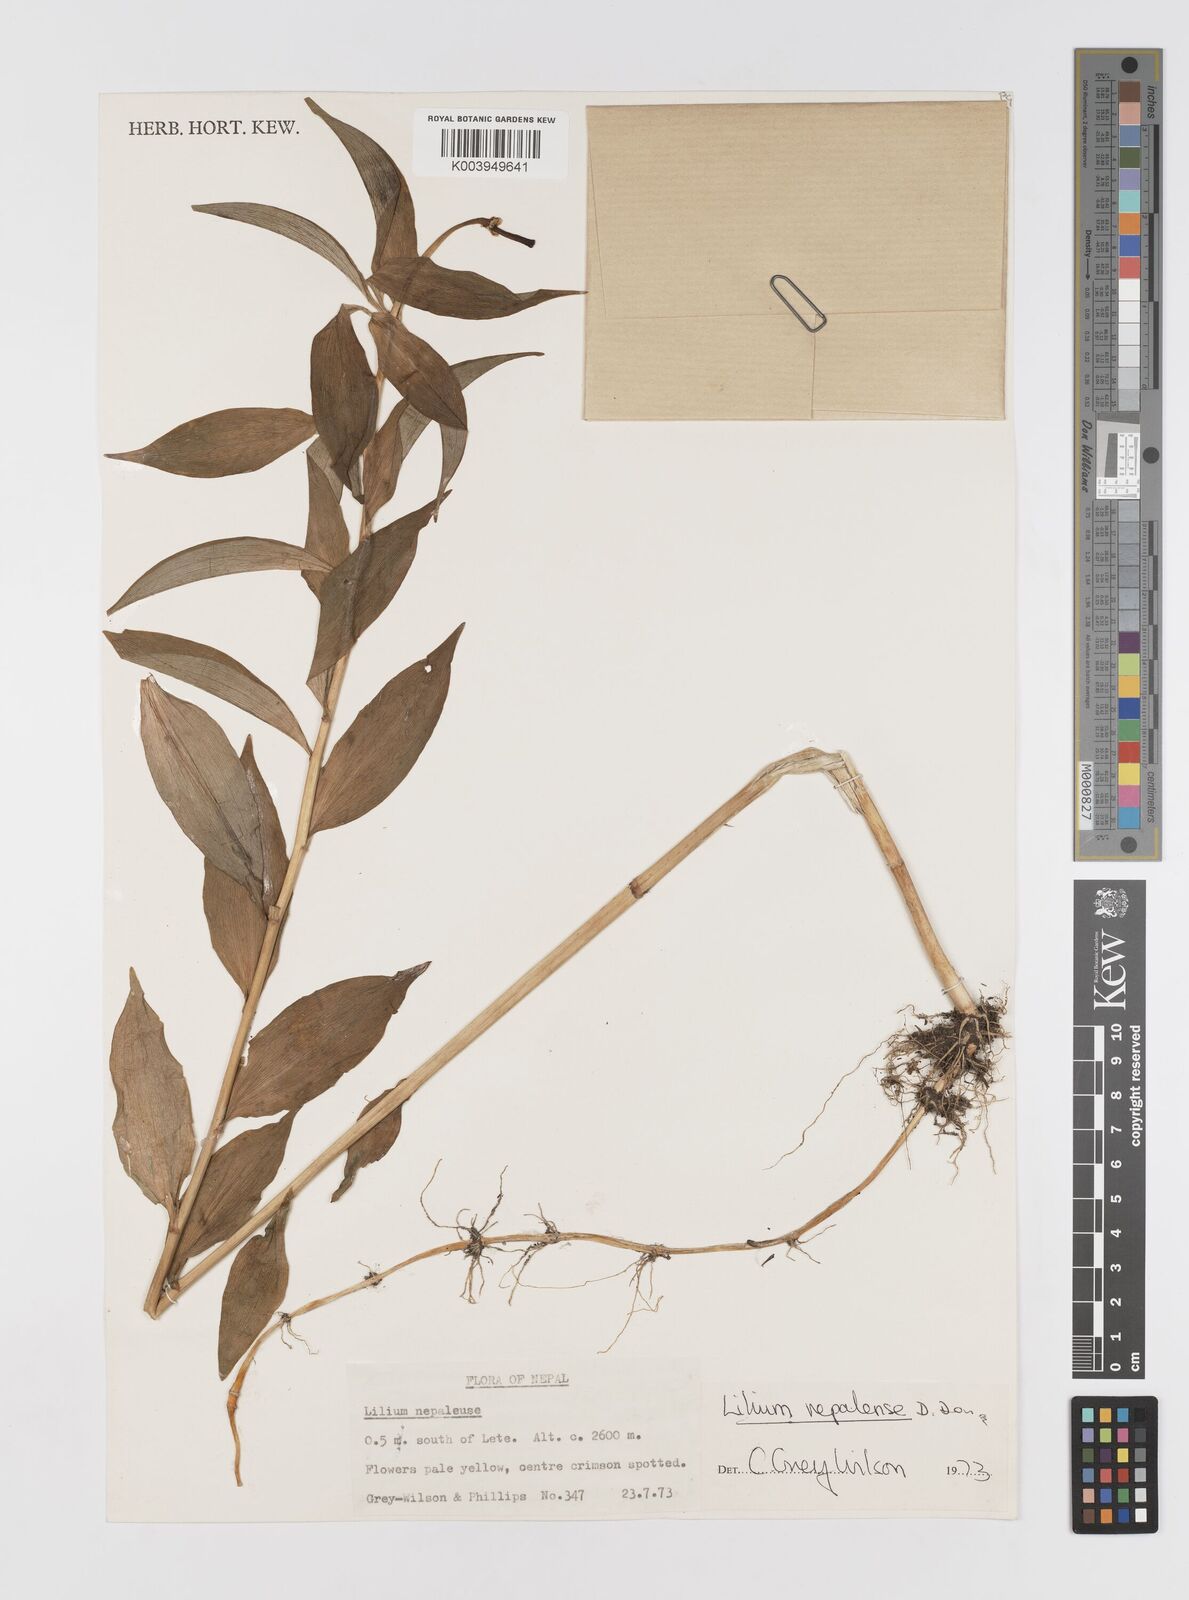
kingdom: Plantae
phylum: Tracheophyta
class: Liliopsida
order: Liliales
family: Liliaceae
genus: Lilium
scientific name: Lilium nepalense
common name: Nepal lily
